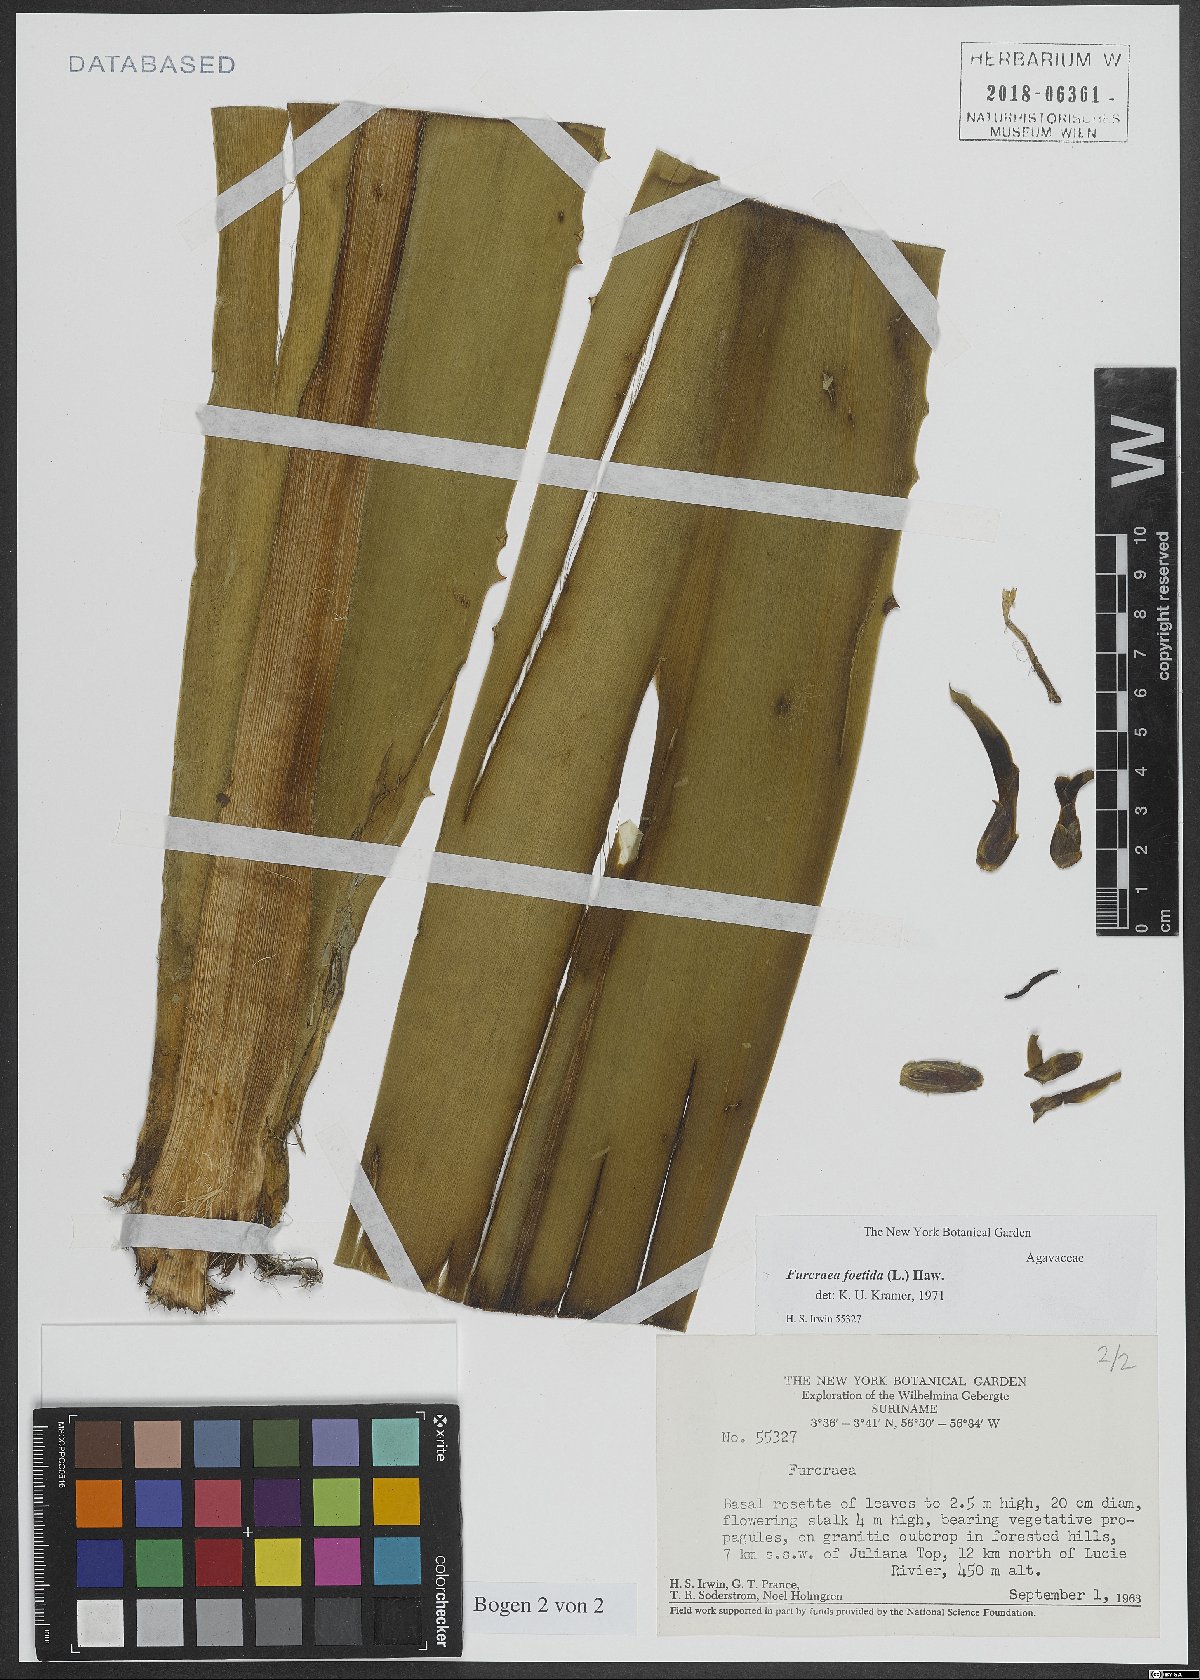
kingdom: Plantae
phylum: Tracheophyta
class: Liliopsida
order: Asparagales
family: Asparagaceae
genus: Furcraea
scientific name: Furcraea foetida
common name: Mauritius hemp
